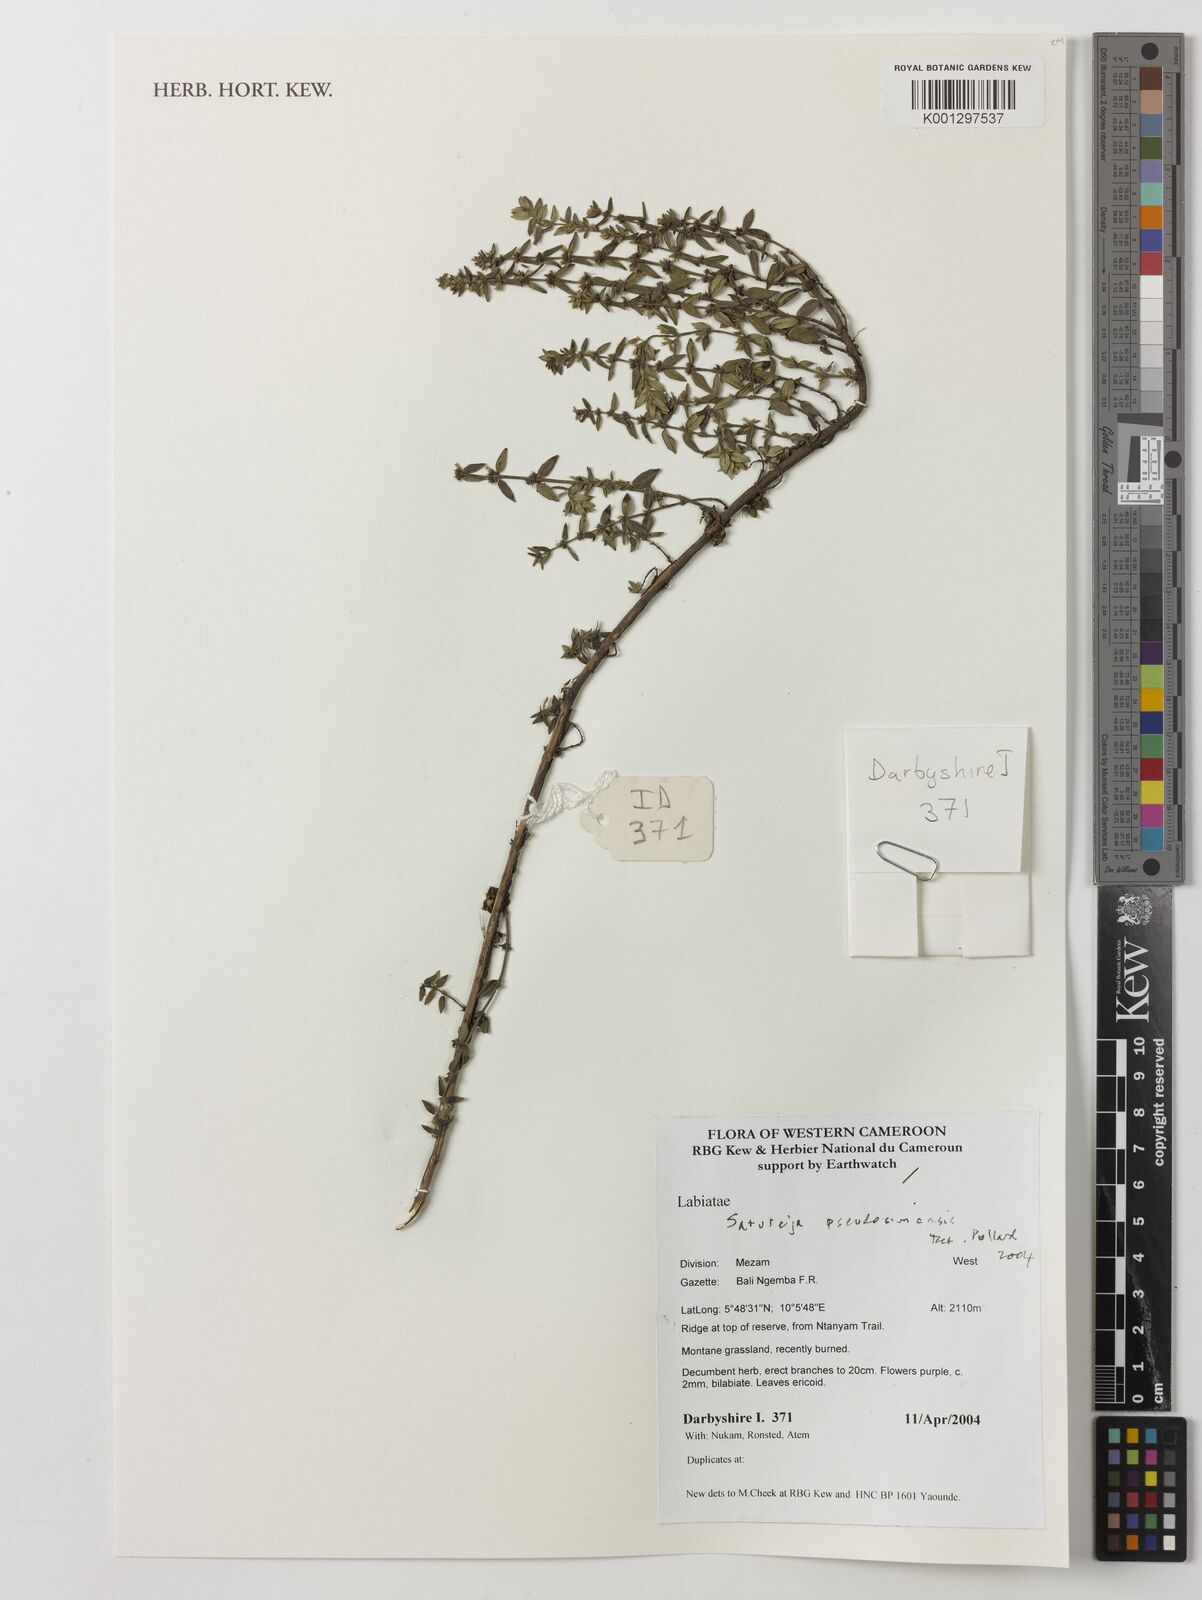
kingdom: Plantae
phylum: Tracheophyta
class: Magnoliopsida
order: Lamiales
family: Lamiaceae
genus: Clinopodium
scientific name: Clinopodium uhligii
